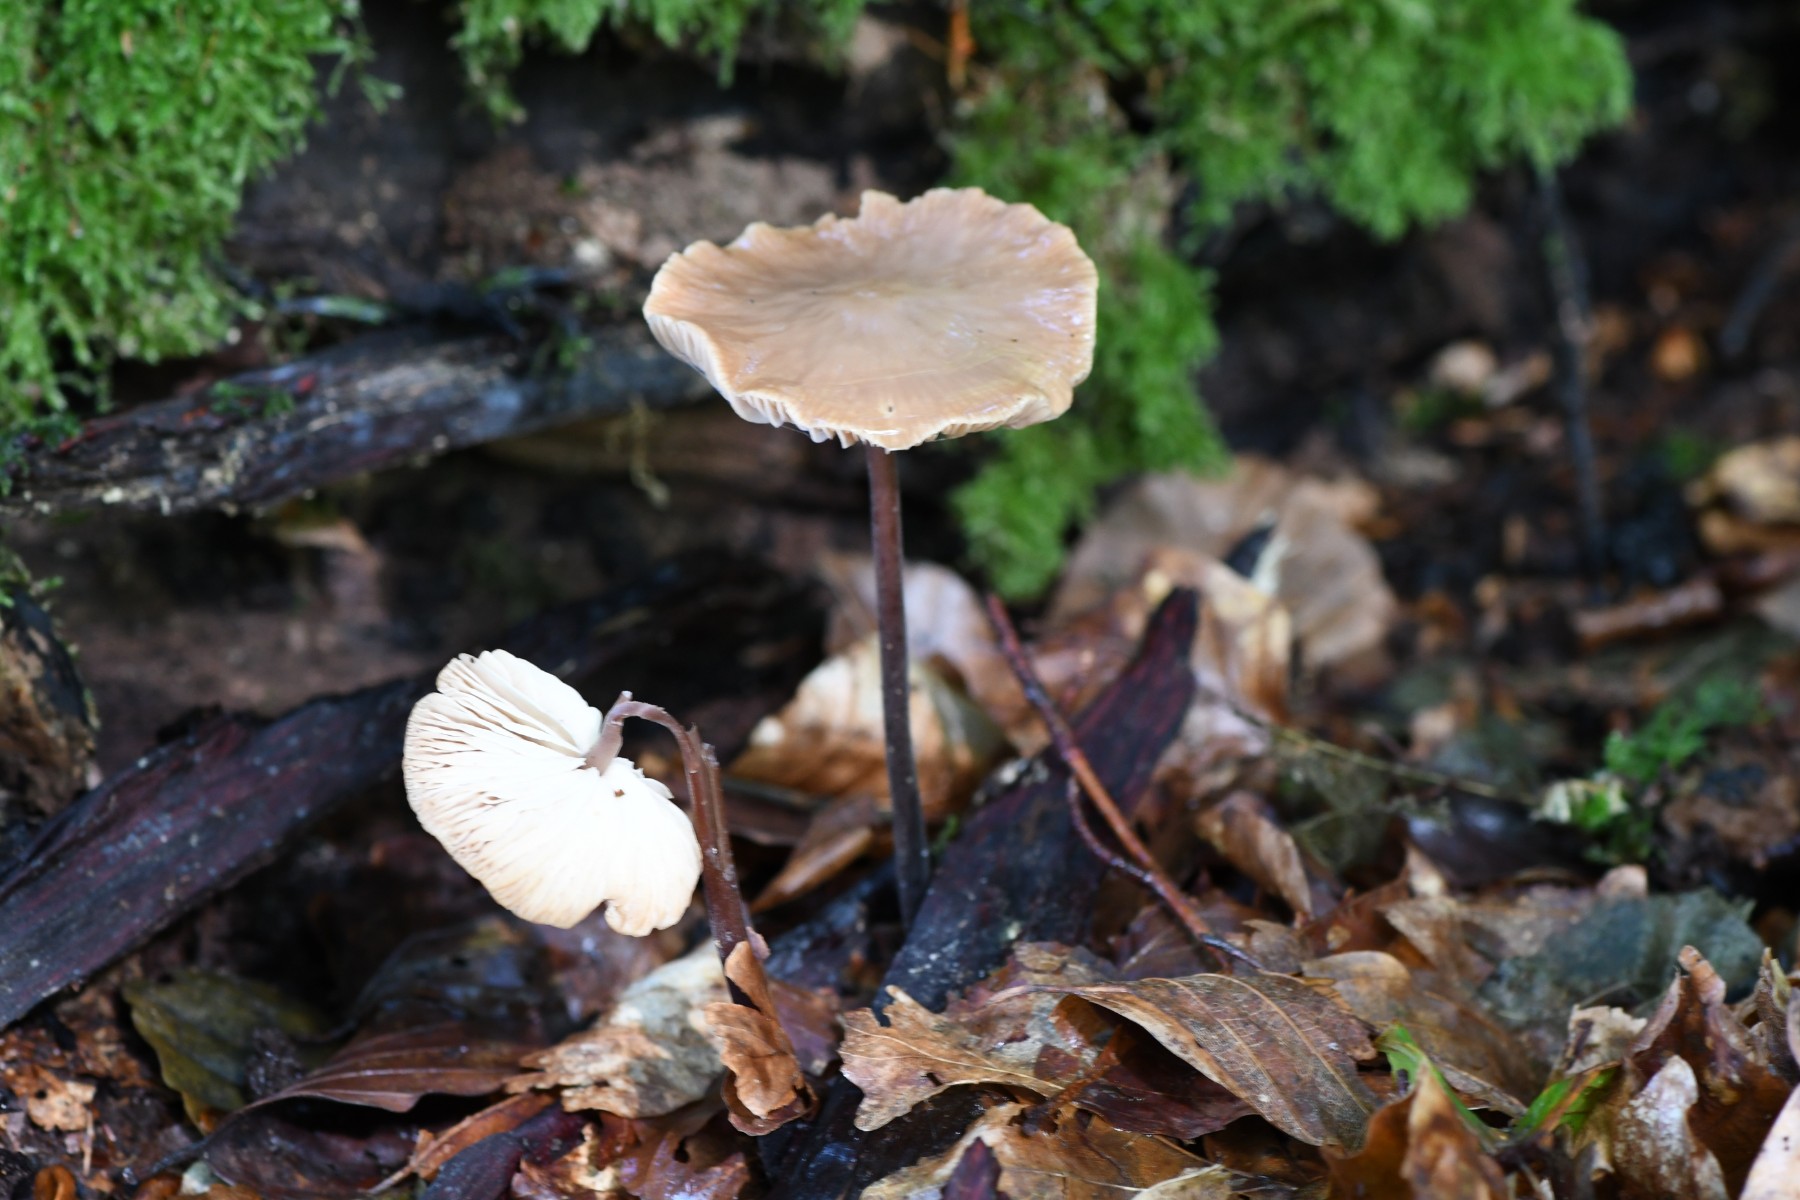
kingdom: Fungi
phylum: Basidiomycota
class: Agaricomycetes
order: Agaricales
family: Omphalotaceae
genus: Mycetinis
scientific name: Mycetinis alliaceus
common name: stor løghat
